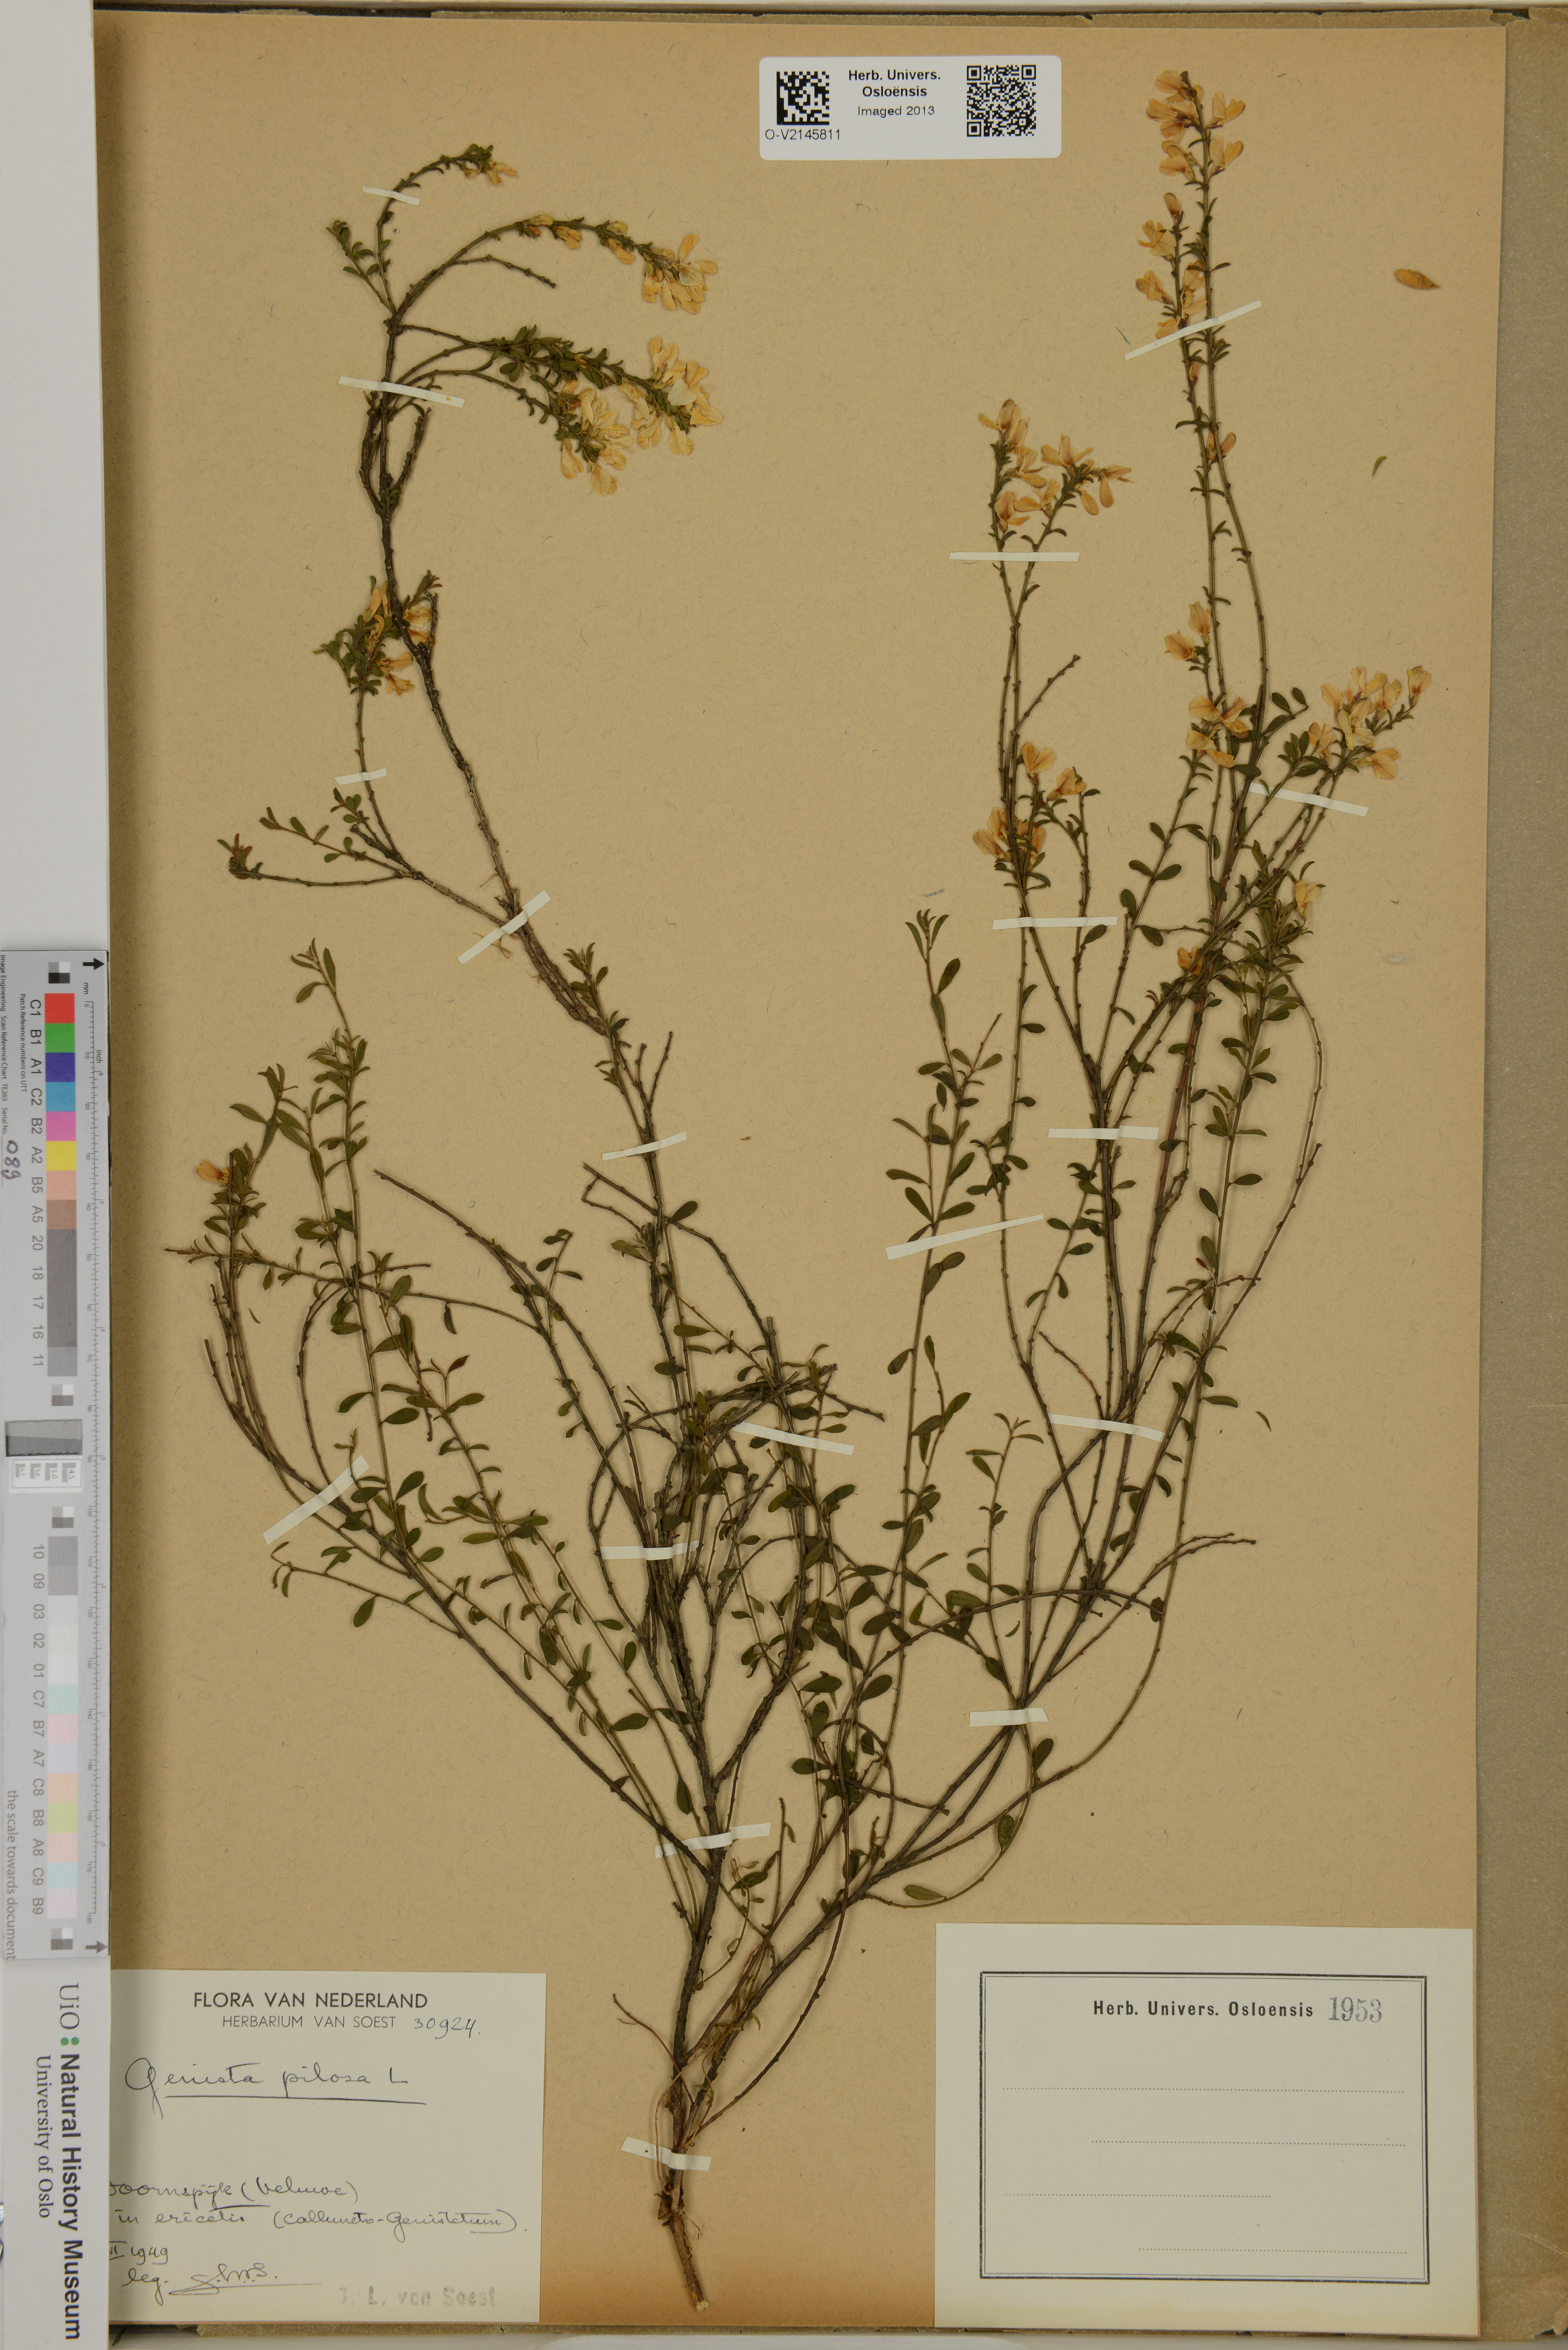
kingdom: Plantae
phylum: Tracheophyta
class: Magnoliopsida
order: Fabales
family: Fabaceae
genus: Genista
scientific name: Genista pilosa
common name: Hairy greenweed
